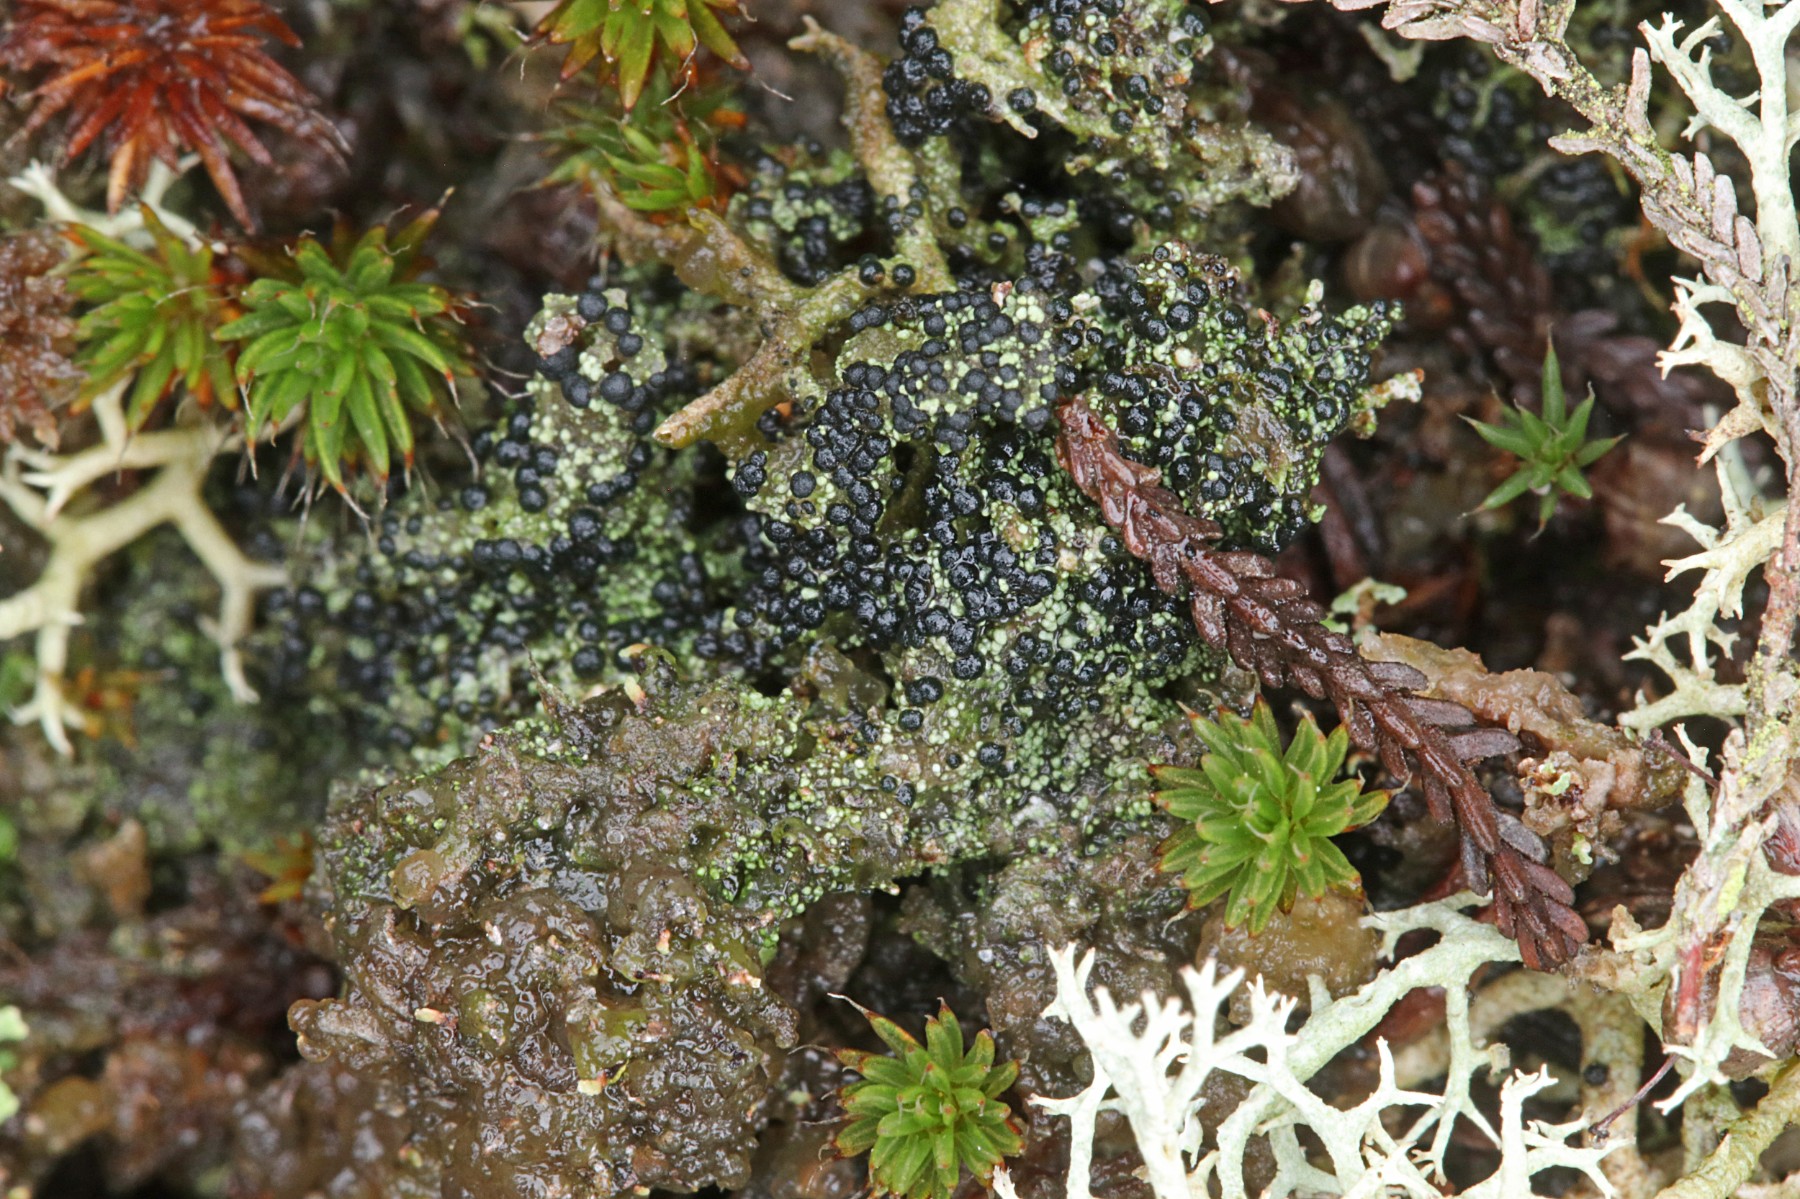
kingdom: Fungi
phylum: Ascomycota
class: Lecanoromycetes
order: Lecanorales
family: Byssolomataceae
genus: Micarea
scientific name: Micarea lignaria
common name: tørve-knaplav
